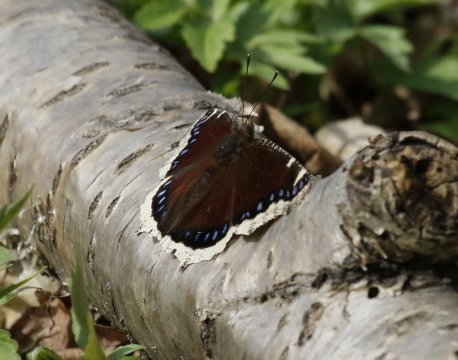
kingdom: Animalia
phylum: Arthropoda
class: Insecta
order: Lepidoptera
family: Nymphalidae
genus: Nymphalis
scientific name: Nymphalis antiopa
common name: Mourning Cloak
